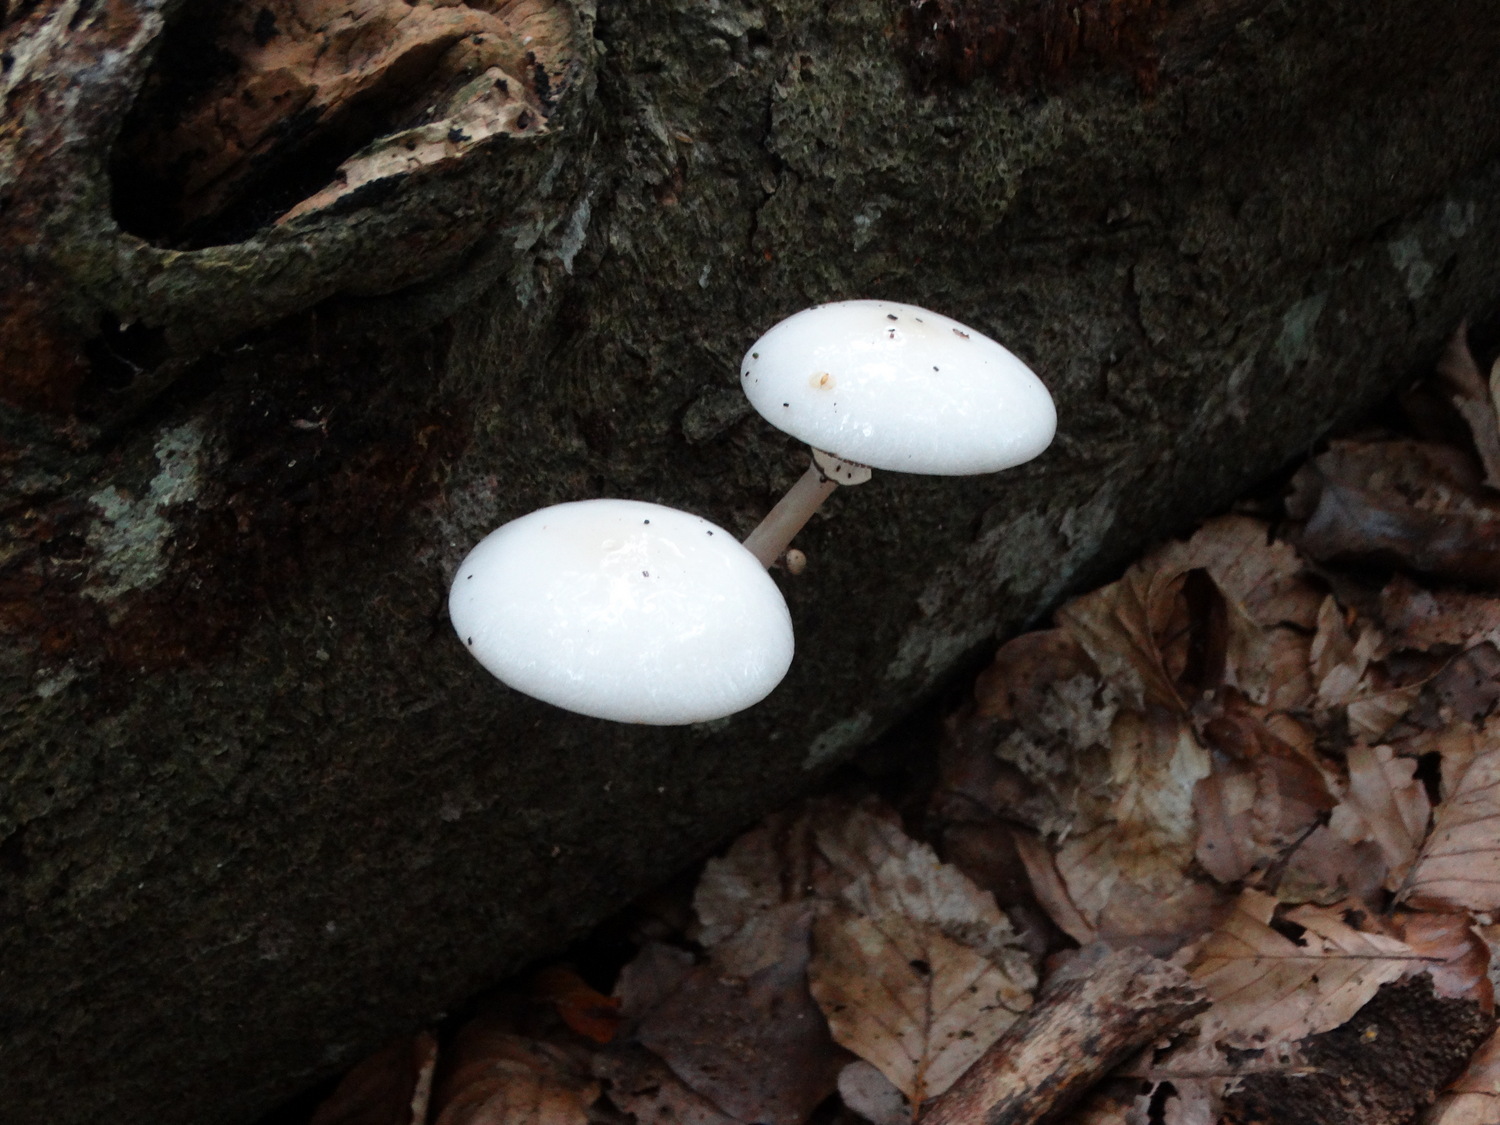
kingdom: Fungi
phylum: Basidiomycota
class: Agaricomycetes
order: Agaricales
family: Physalacriaceae
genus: Mucidula
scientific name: Mucidula mucida
